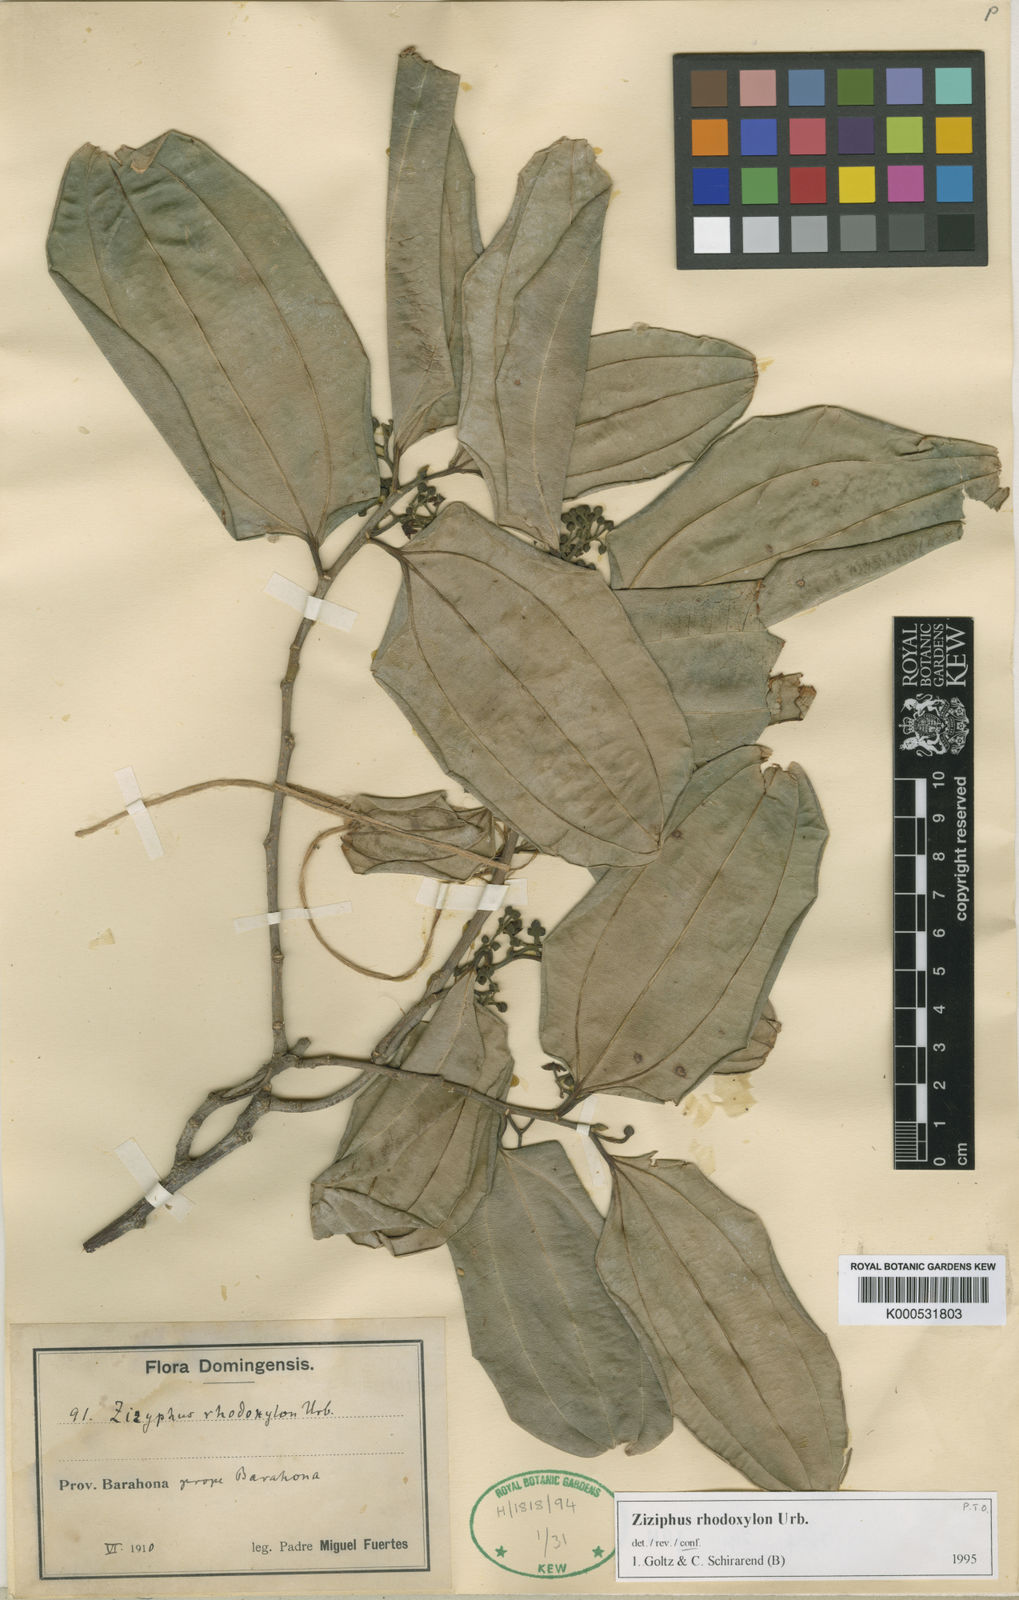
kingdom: Plantae
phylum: Tracheophyta
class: Magnoliopsida
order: Rosales
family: Rhamnaceae
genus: Sarcomphalus
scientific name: Sarcomphalus rhodoxylon
